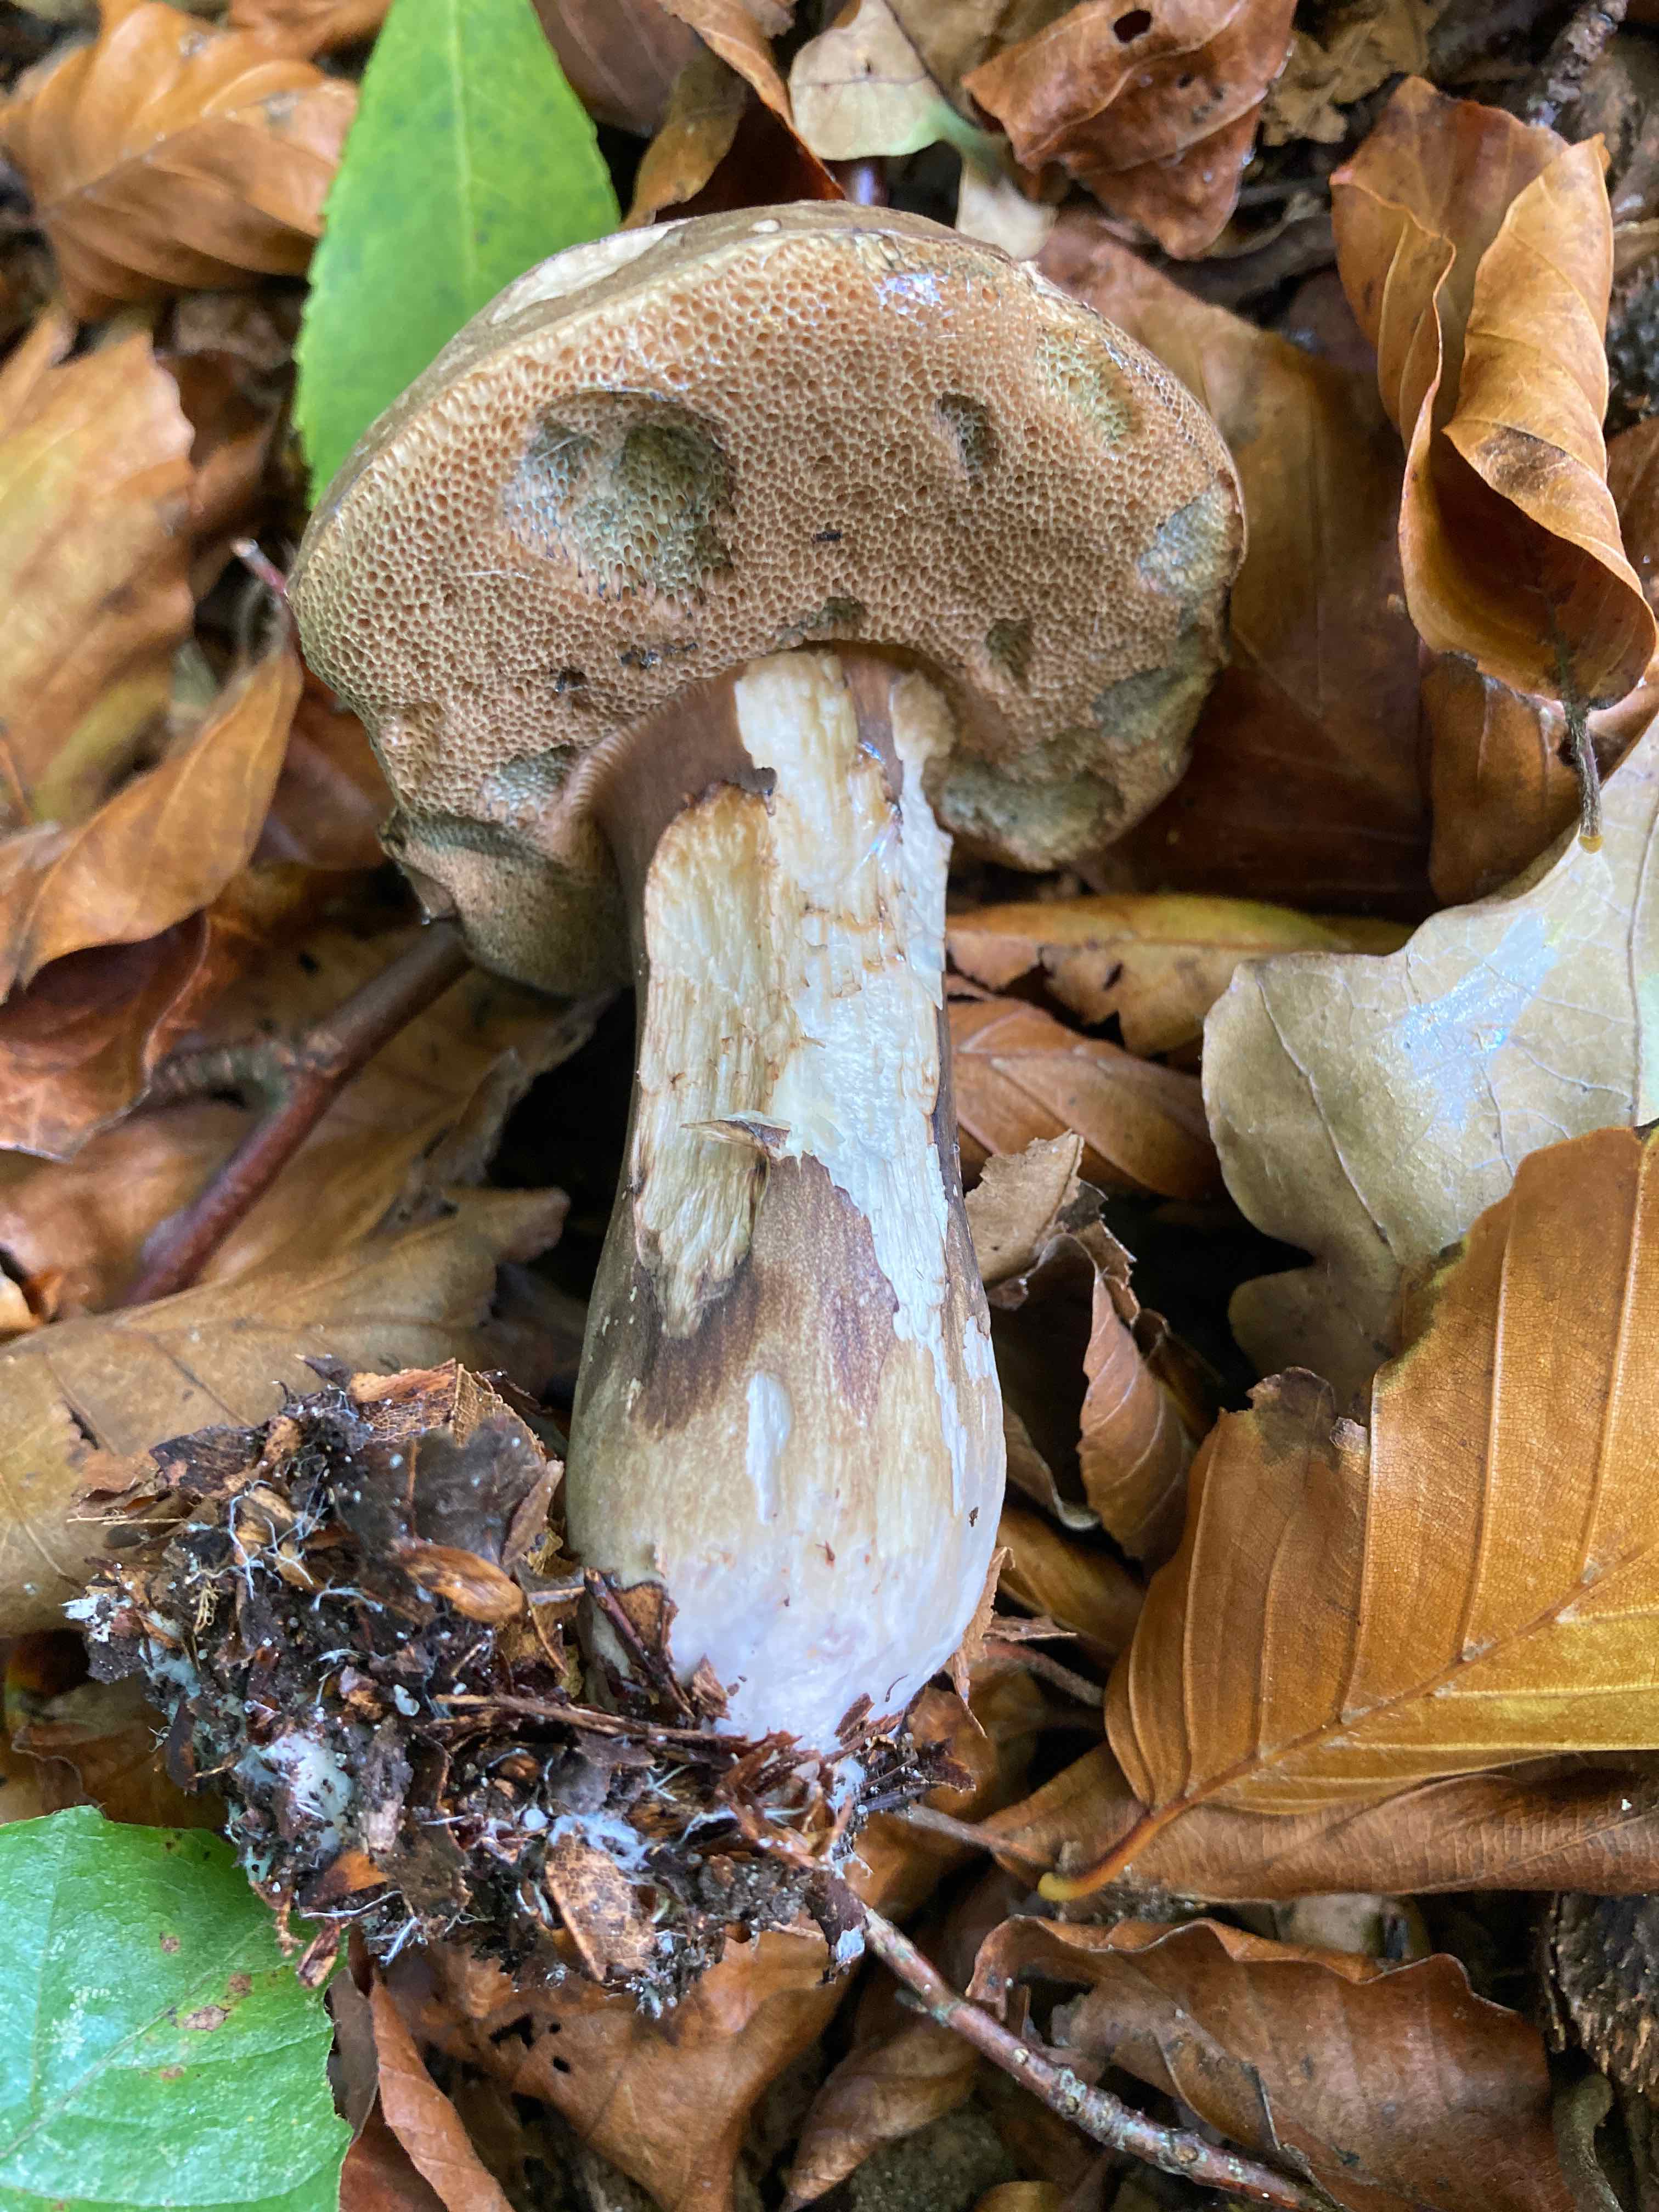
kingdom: Fungi
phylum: Basidiomycota
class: Agaricomycetes
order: Boletales
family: Boletaceae
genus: Porphyrellus
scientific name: Porphyrellus porphyrosporus
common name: sodrørhat
